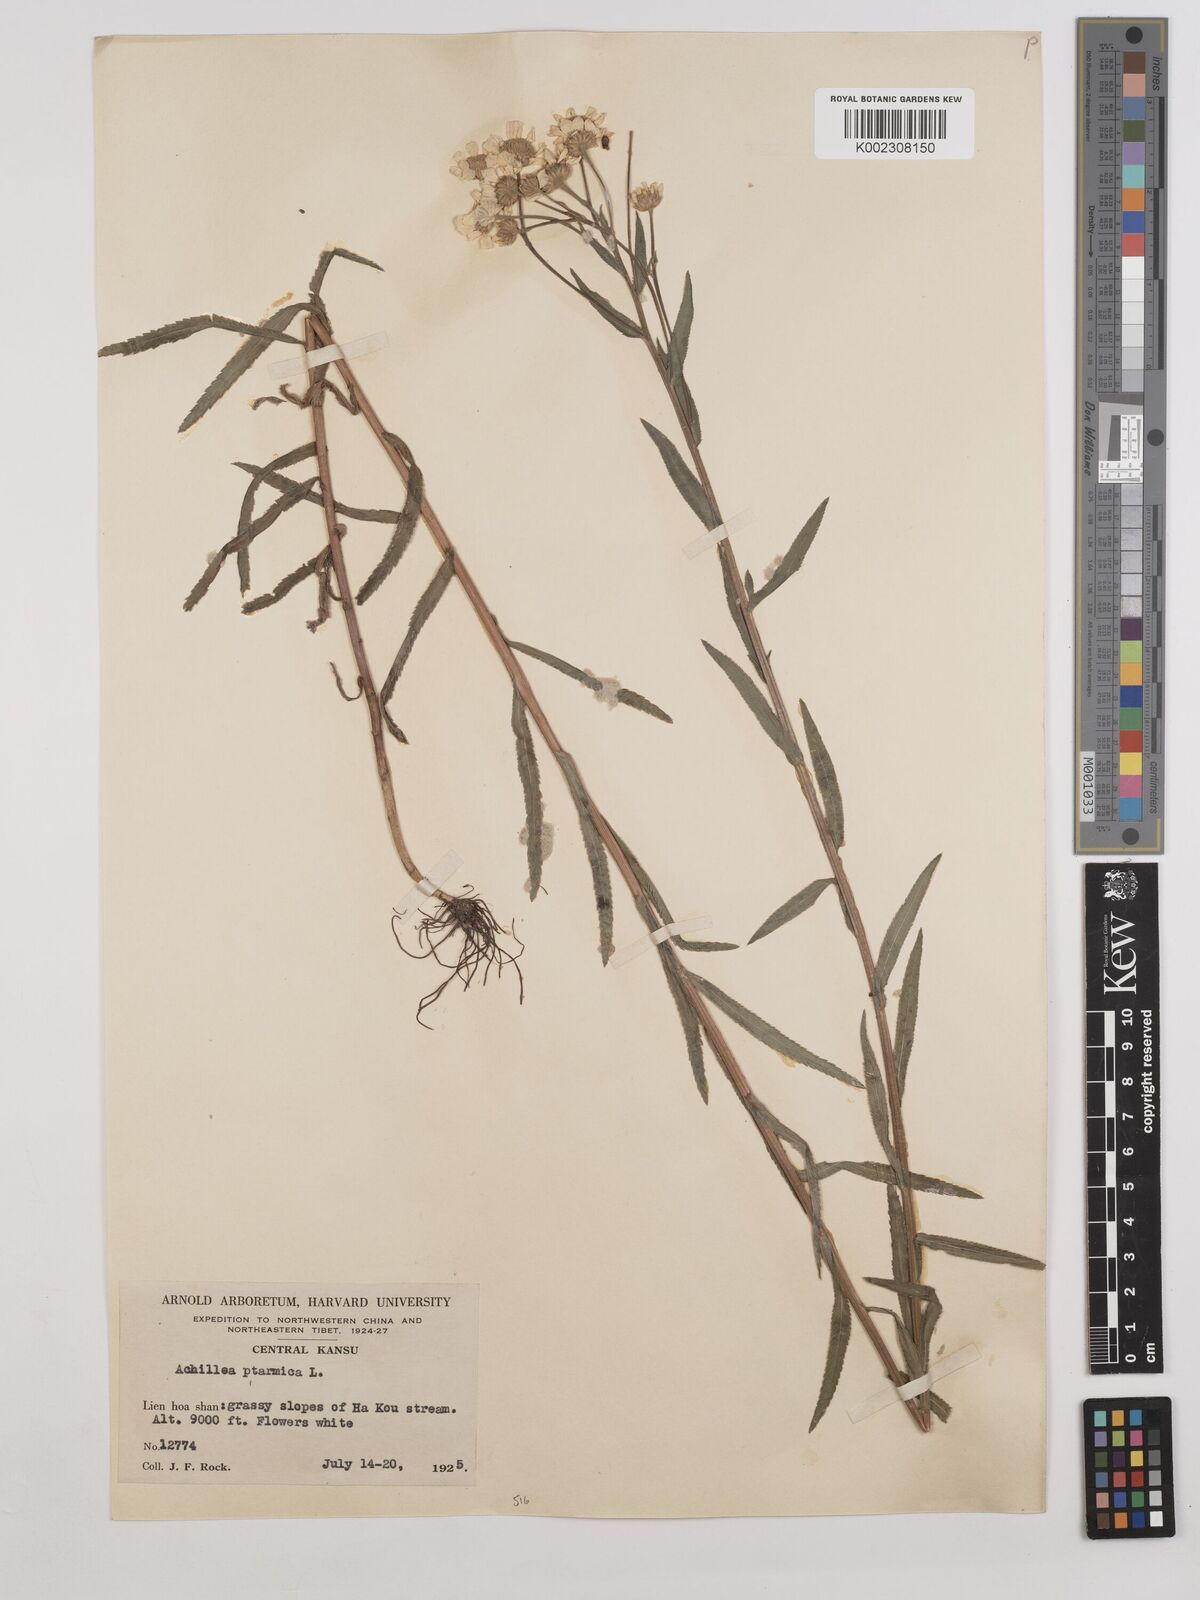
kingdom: Plantae
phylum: Tracheophyta
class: Magnoliopsida
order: Asterales
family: Asteraceae
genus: Achillea
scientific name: Achillea ptarmica
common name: Sneezeweed
